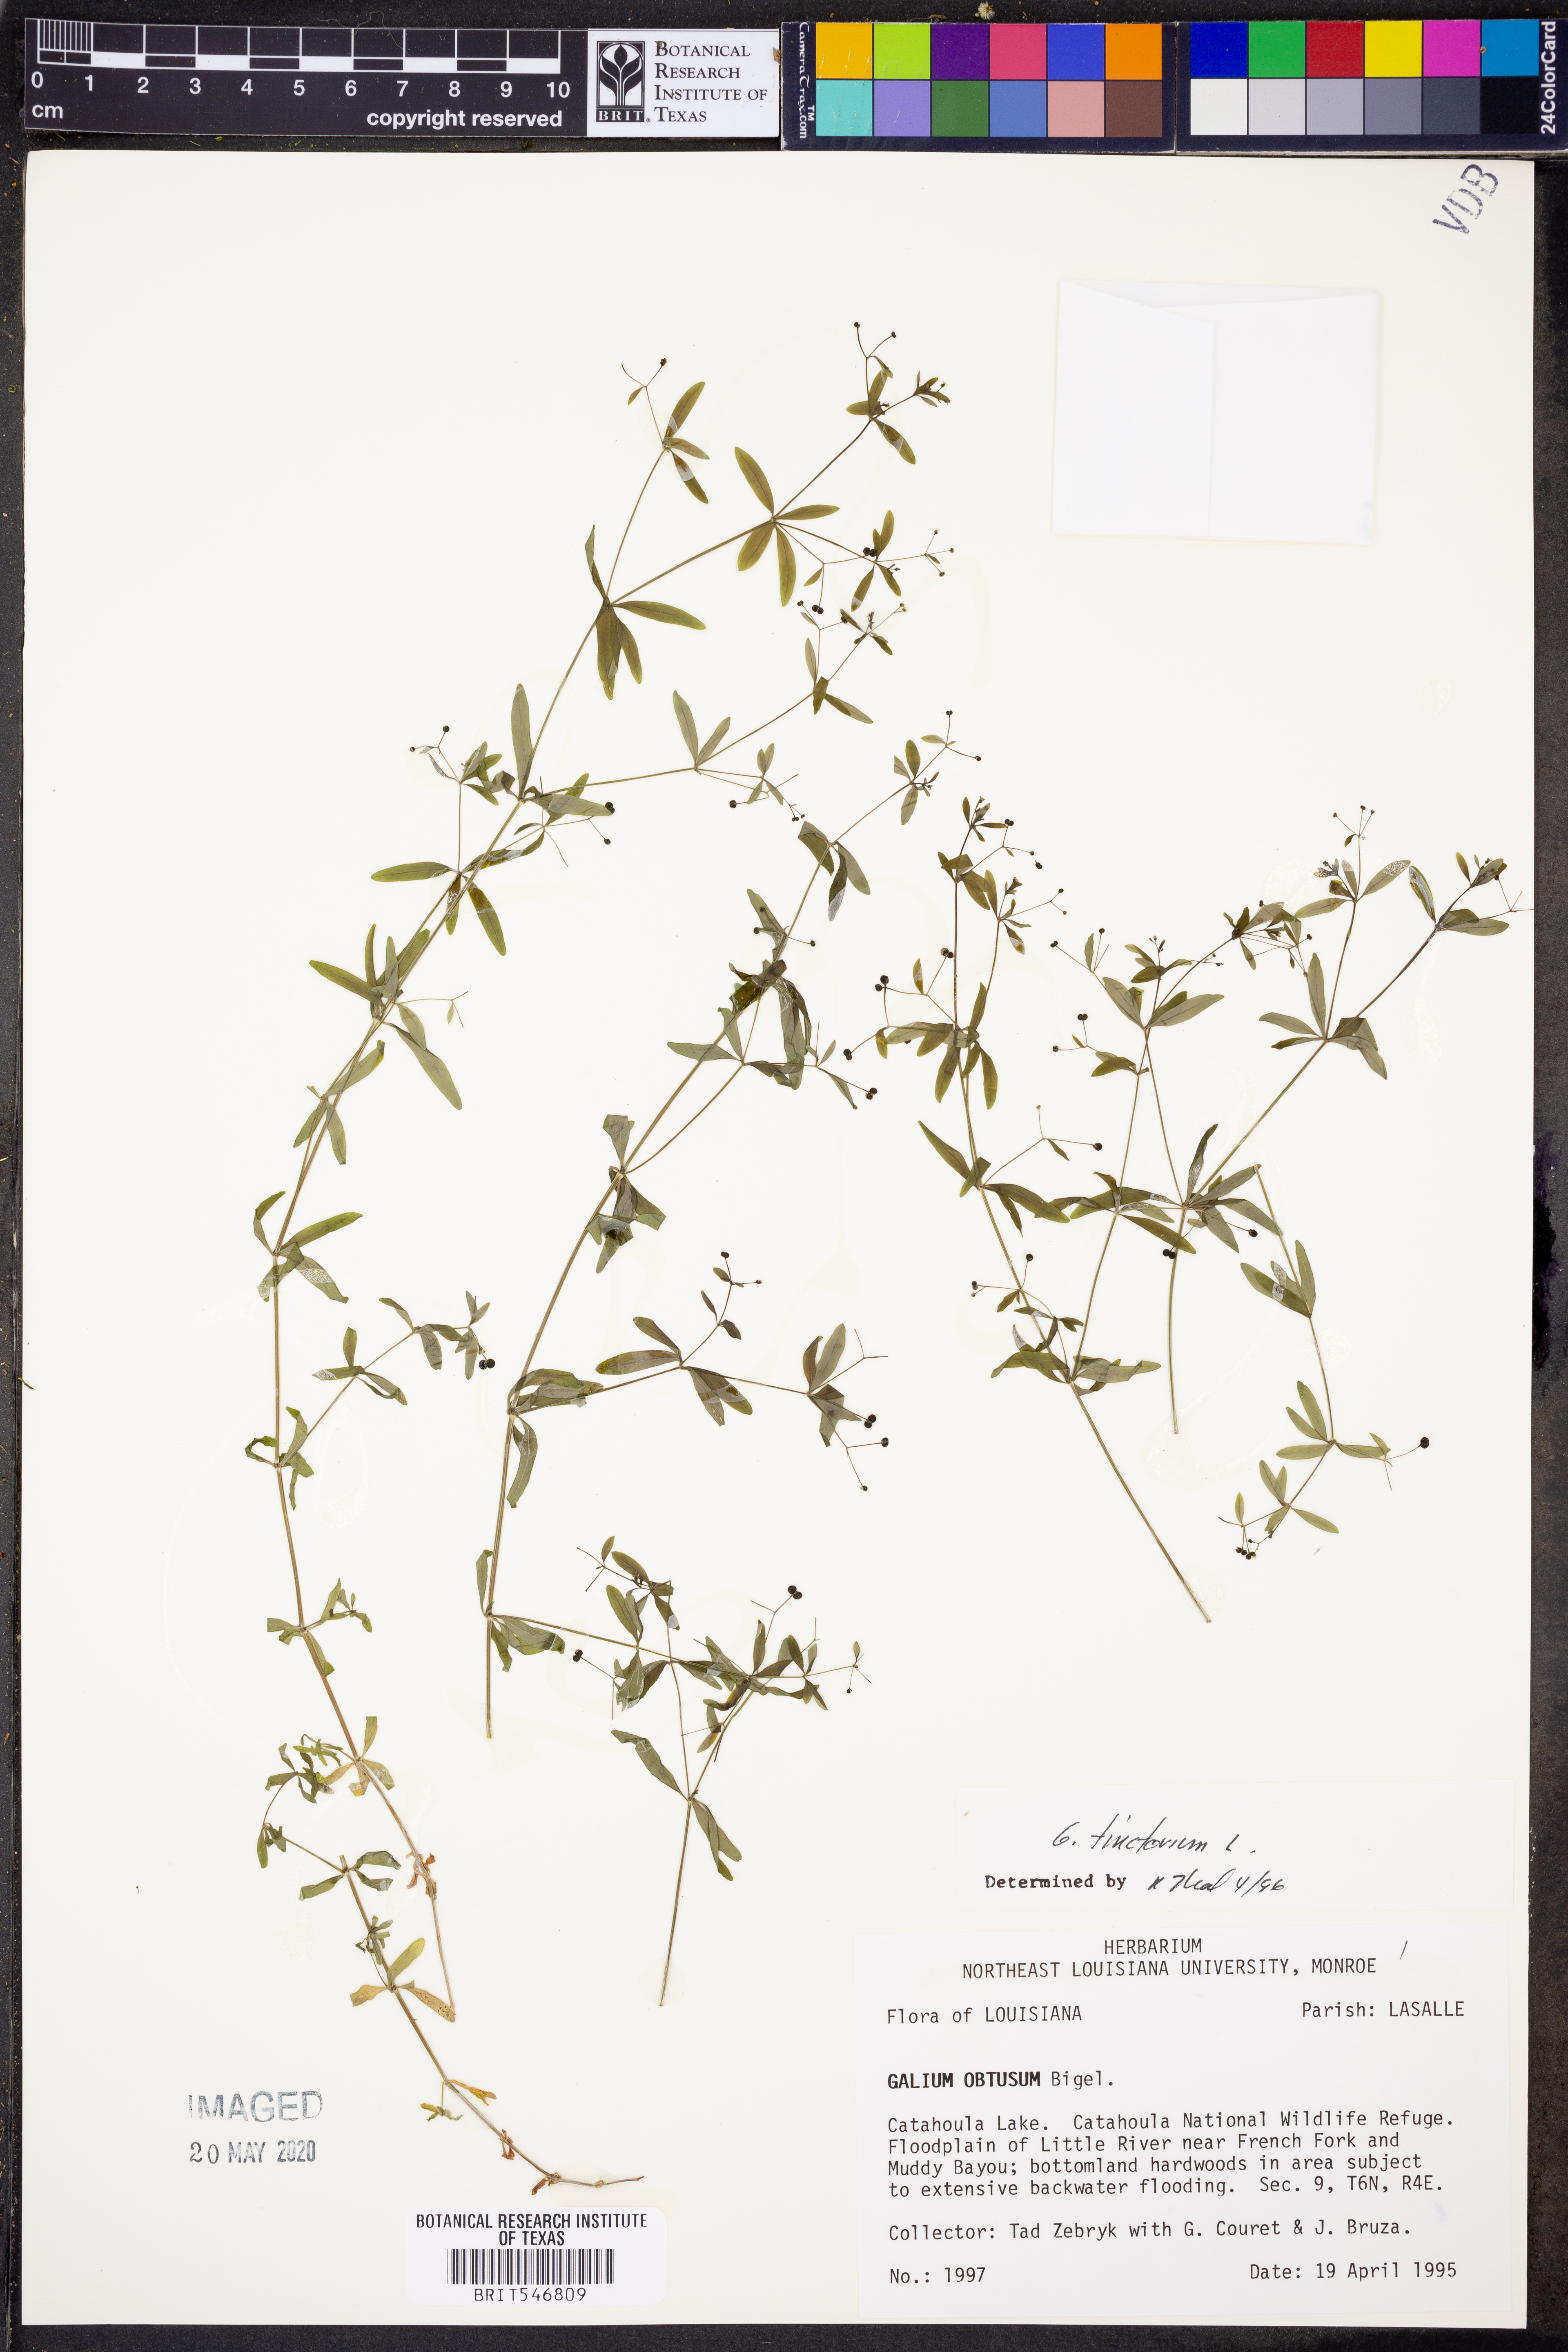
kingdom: Plantae
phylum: Tracheophyta
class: Magnoliopsida
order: Gentianales
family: Rubiaceae
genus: Asperula
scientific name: Asperula tinctoria
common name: Dyer's woodruff
